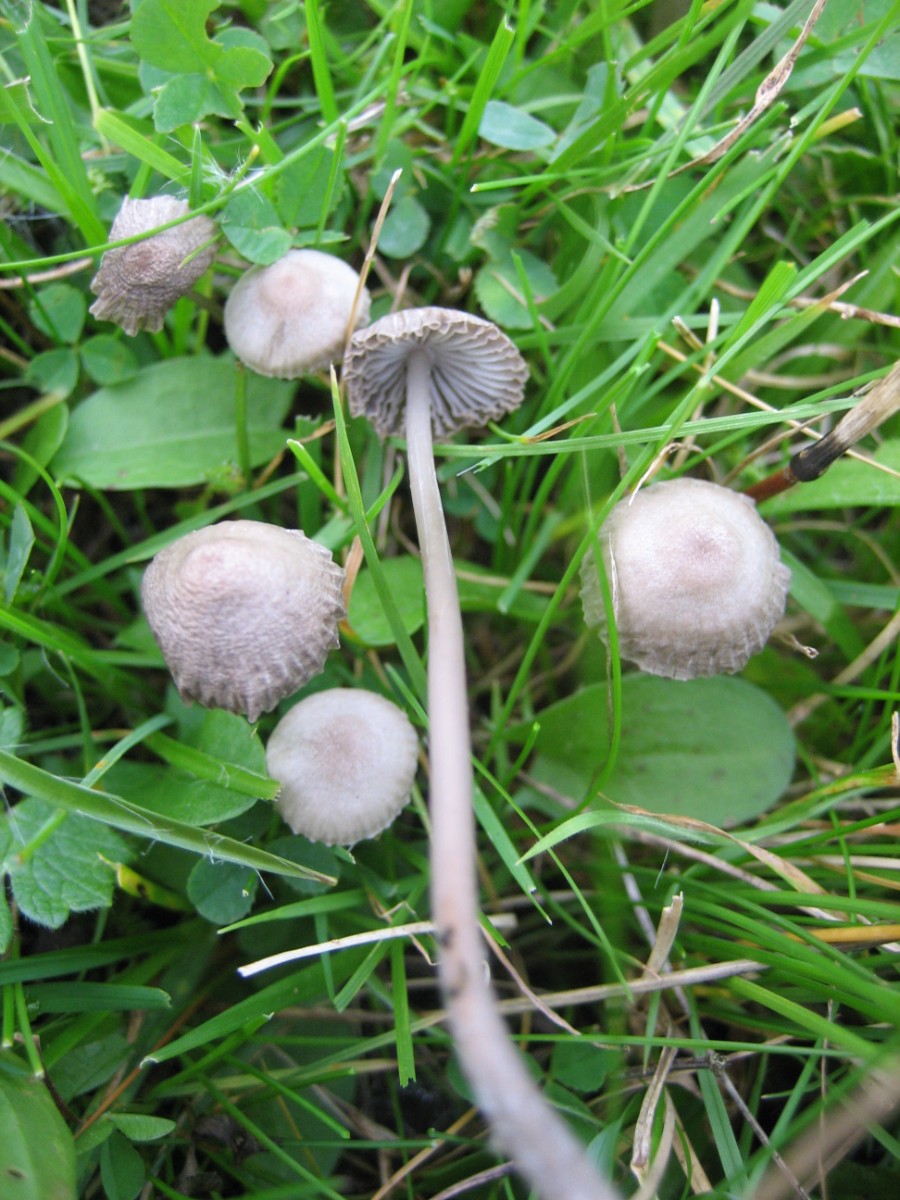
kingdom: Fungi
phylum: Basidiomycota
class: Agaricomycetes
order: Agaricales
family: Mycenaceae
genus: Mycena
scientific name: Mycena
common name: huesvamp
